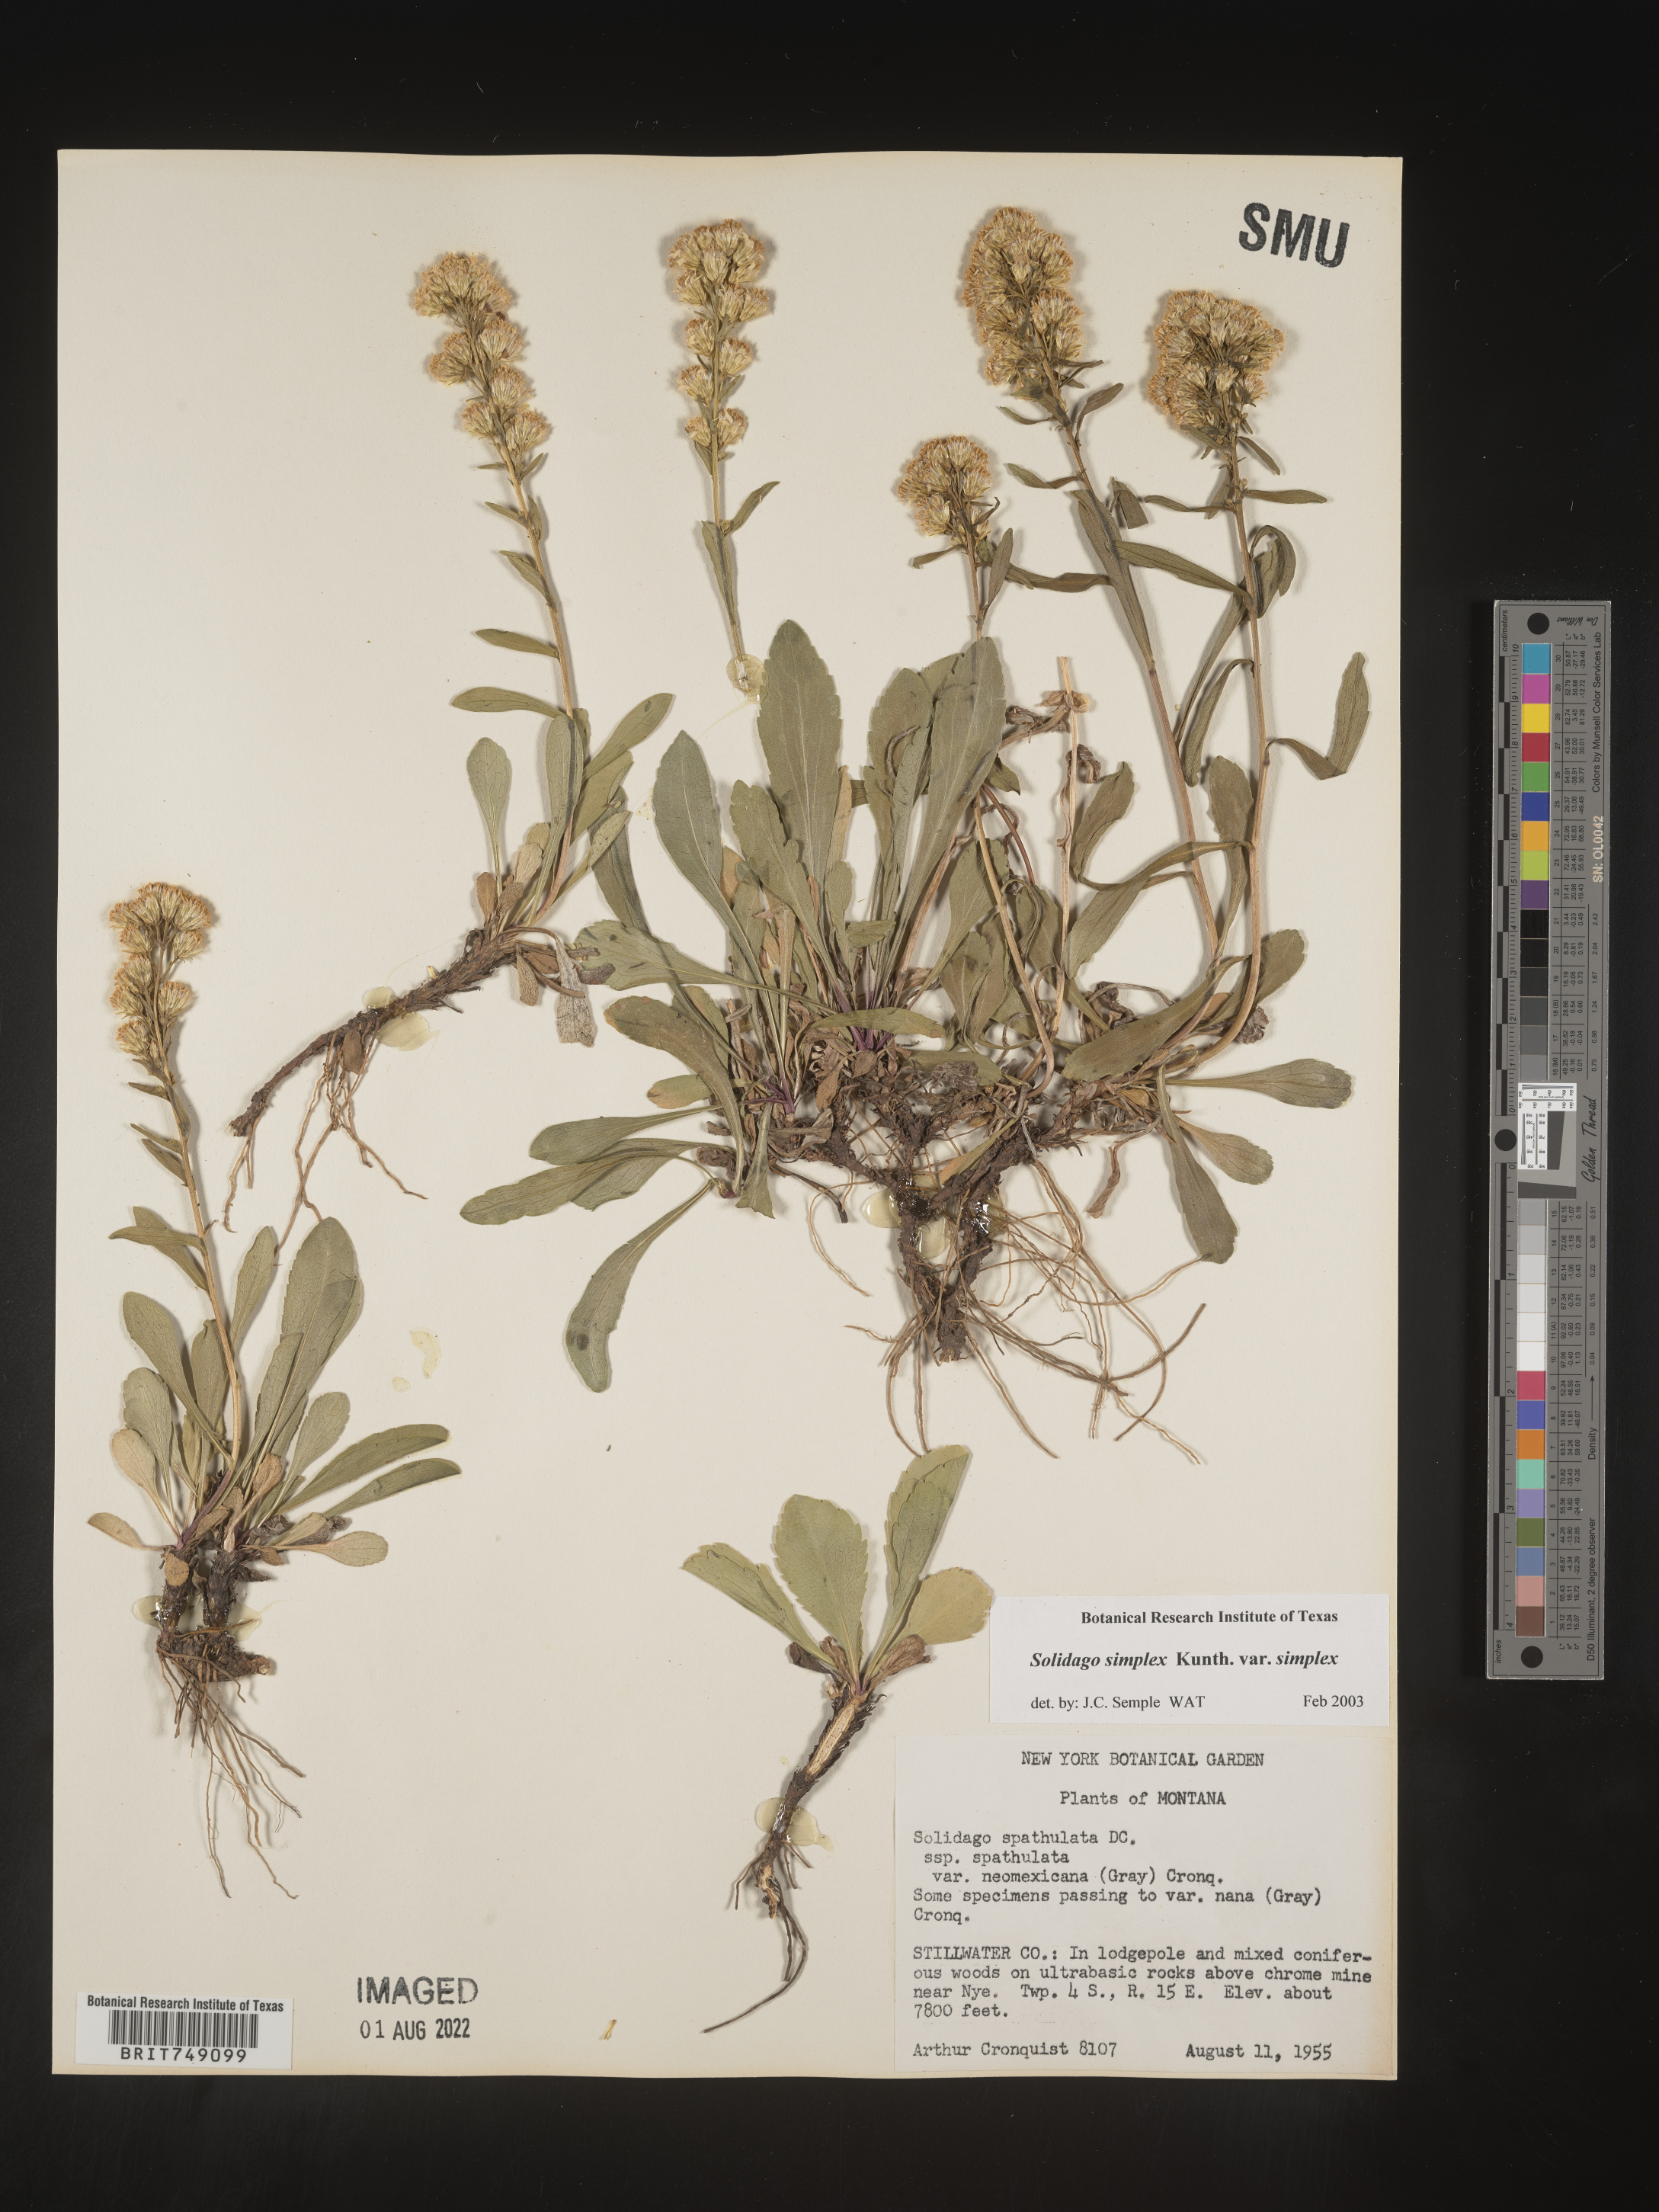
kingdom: Plantae
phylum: Tracheophyta
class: Magnoliopsida
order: Asterales
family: Asteraceae
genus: Solidago
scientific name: Solidago simplex
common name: Sticky goldenrod
